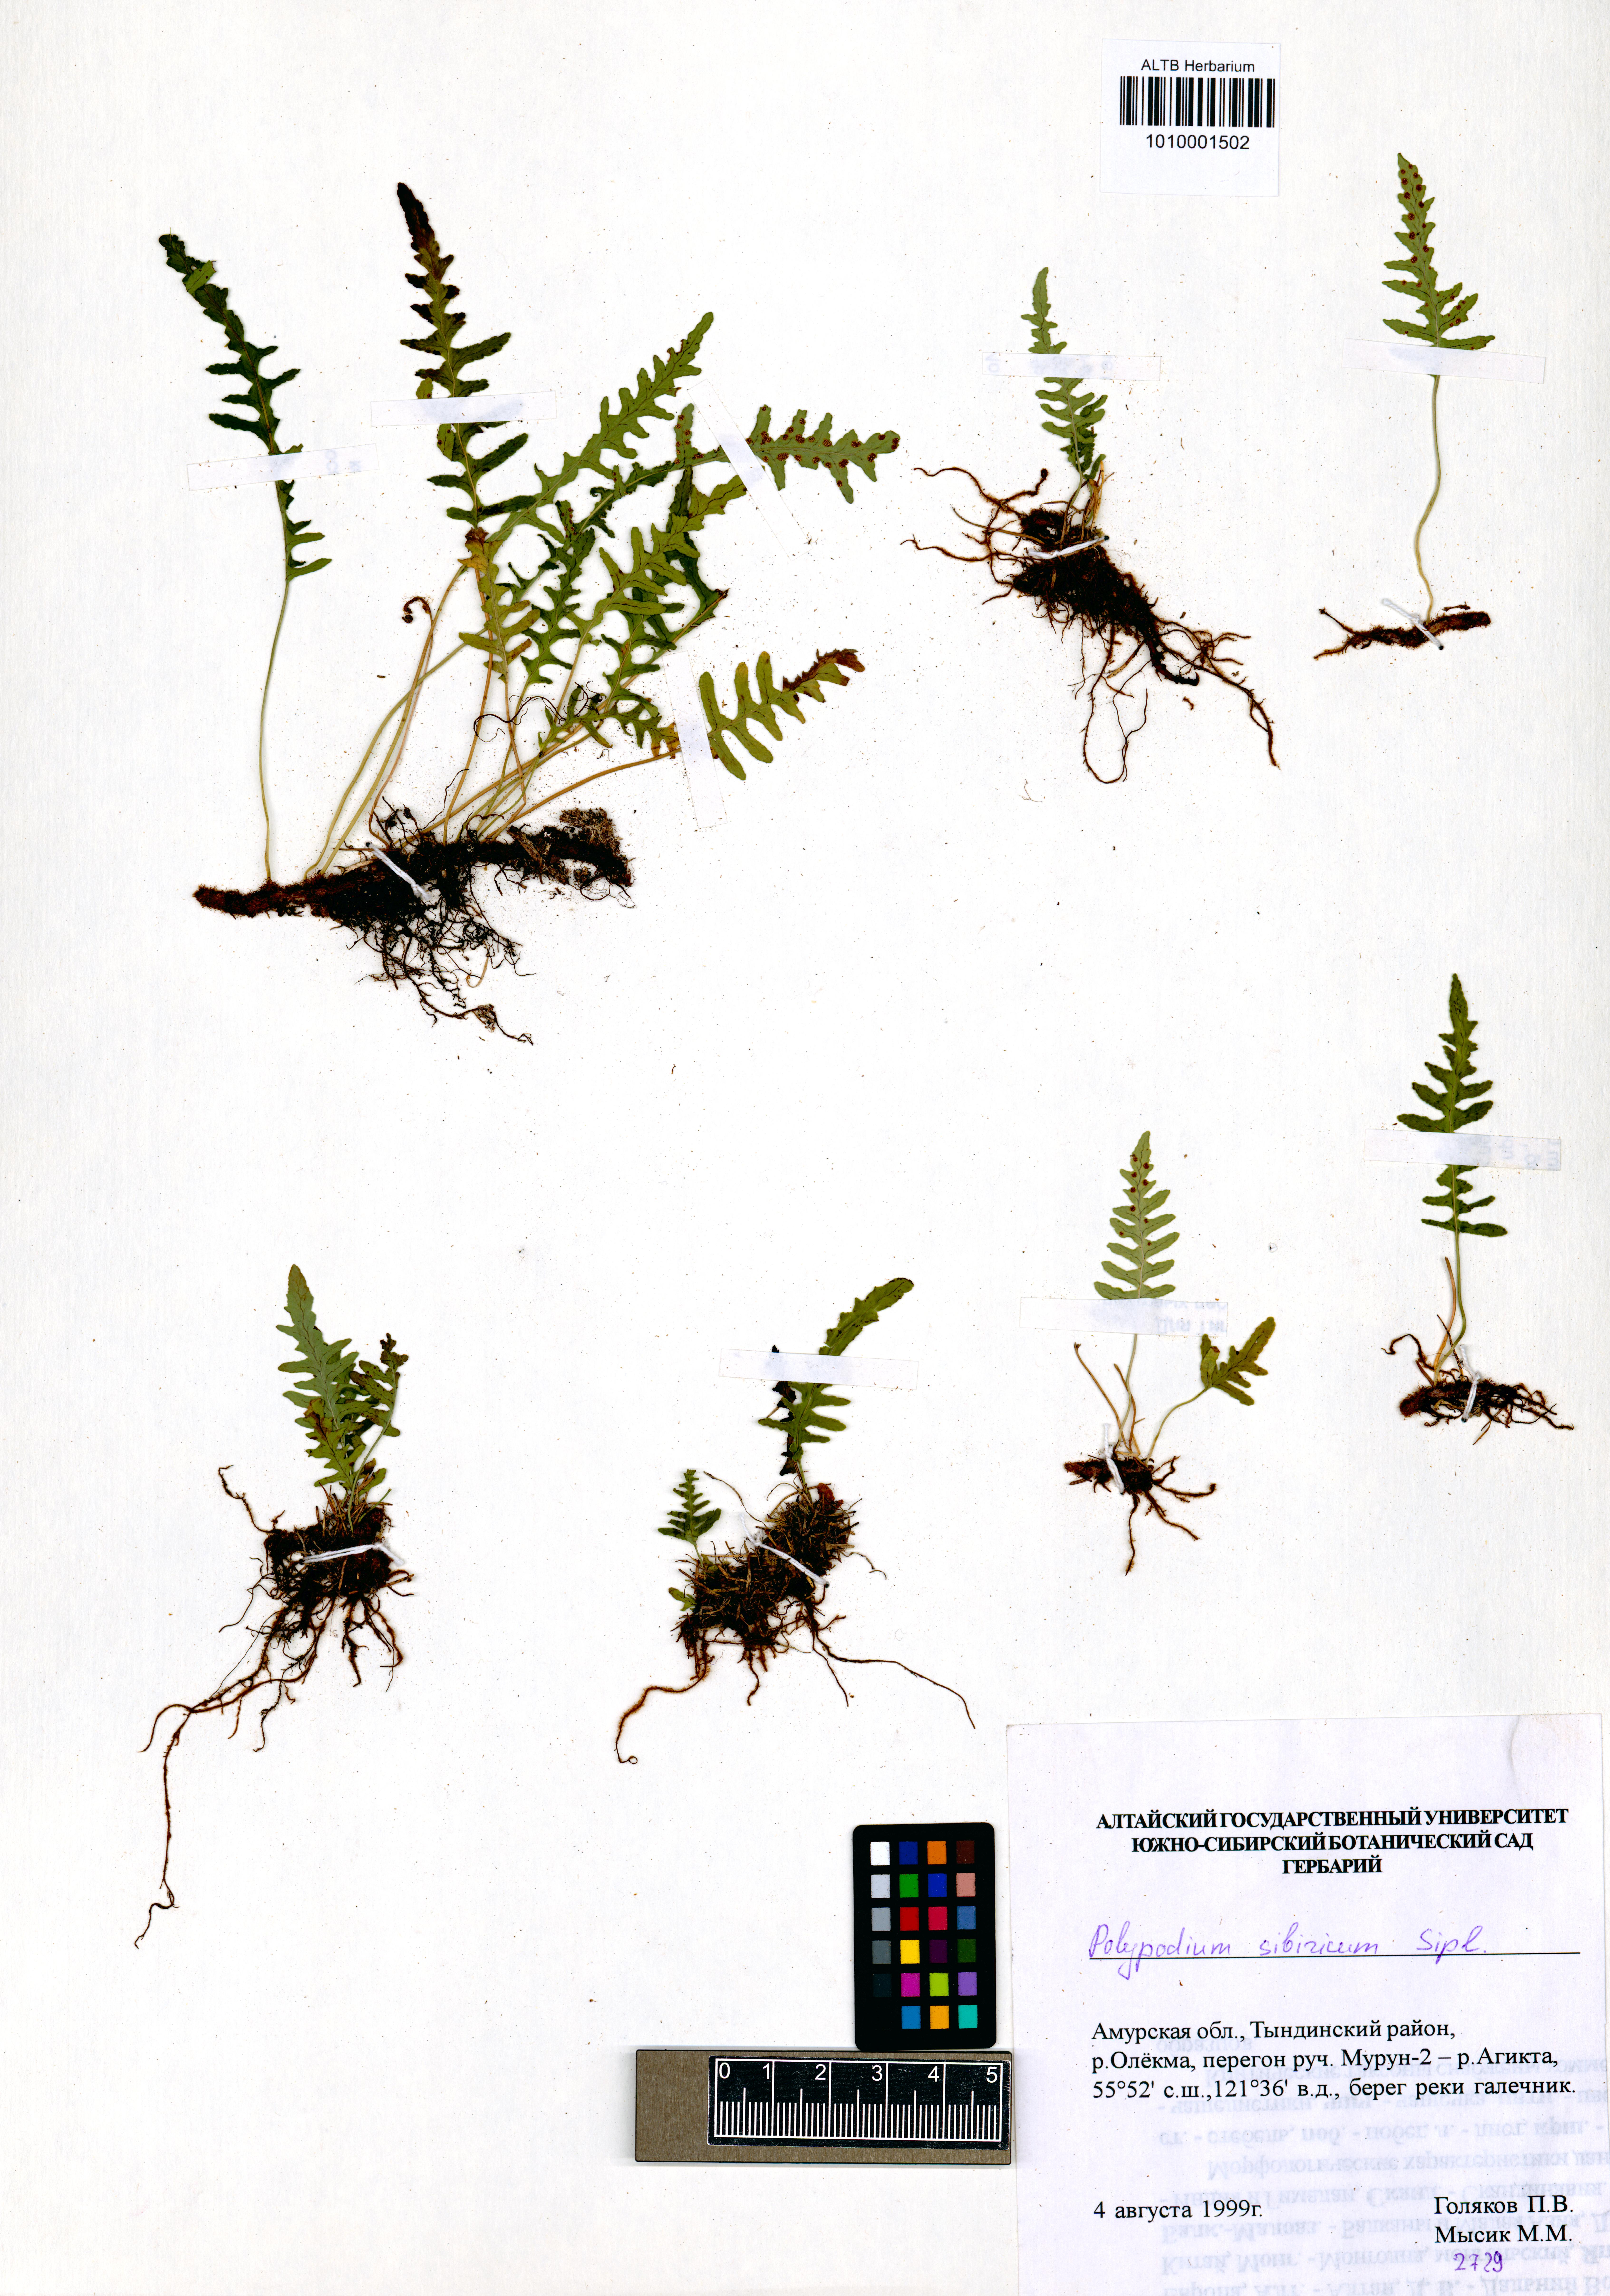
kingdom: Plantae
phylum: Tracheophyta
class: Polypodiopsida
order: Polypodiales
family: Polypodiaceae
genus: Polypodium
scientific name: Polypodium sibiricum
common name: Siberian polypody
